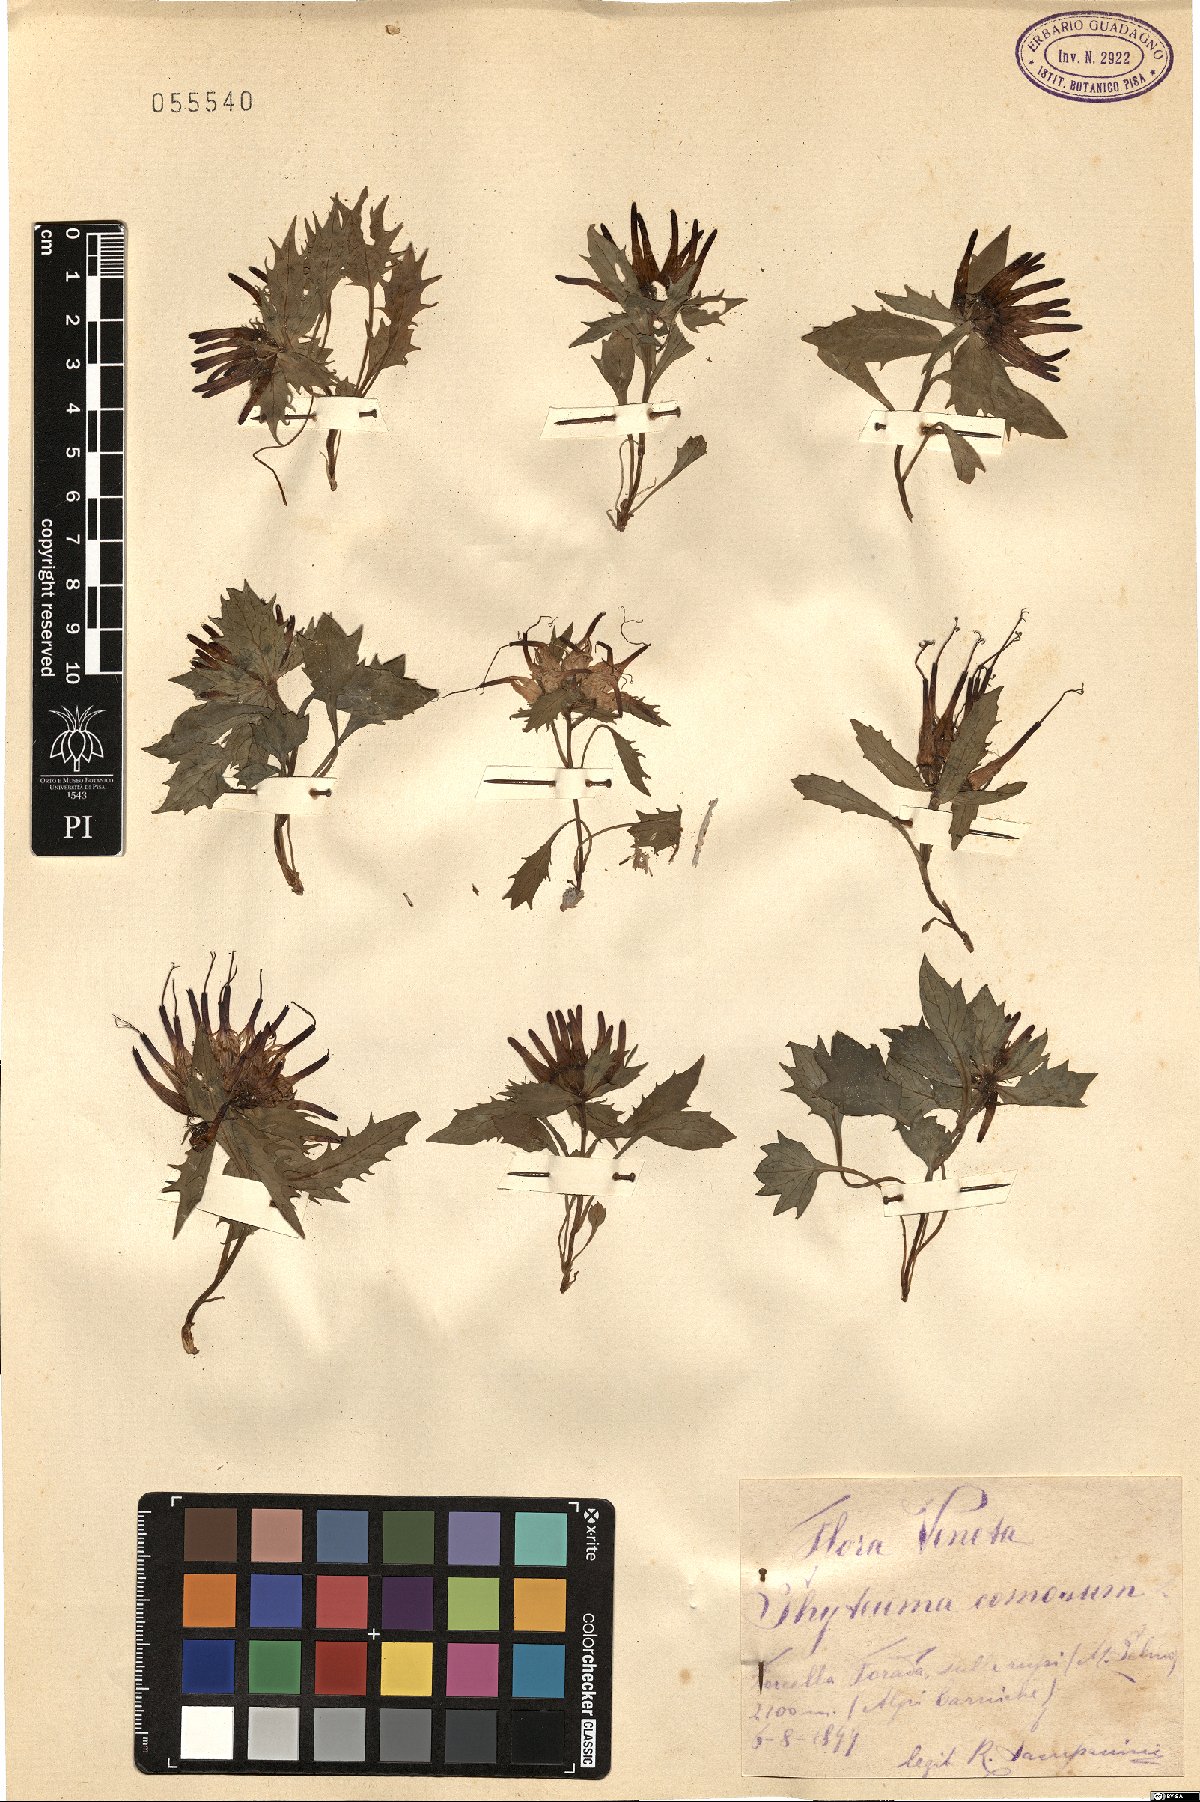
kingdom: Plantae
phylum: Tracheophyta
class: Magnoliopsida
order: Asterales
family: Campanulaceae
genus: Physoplexis
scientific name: Physoplexis comosa
